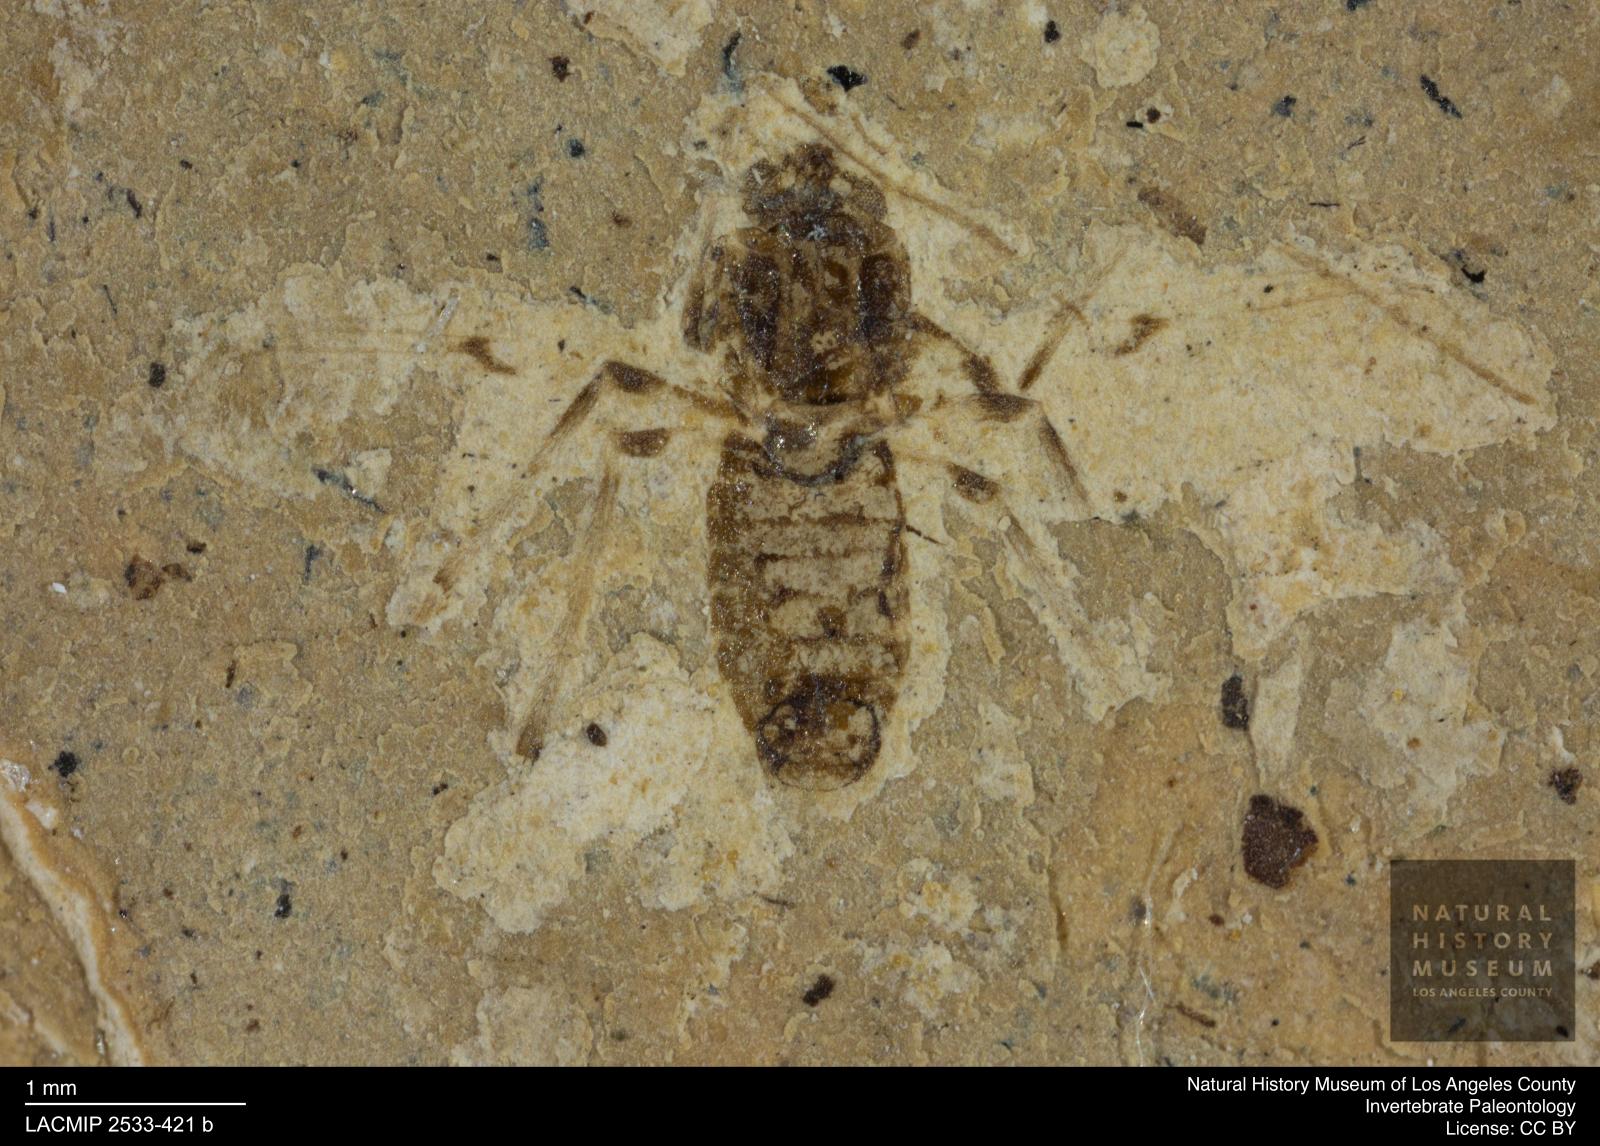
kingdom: Animalia
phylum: Arthropoda
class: Insecta
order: Diptera
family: Chironomidae
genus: Tanypus
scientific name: Tanypus pagasti
